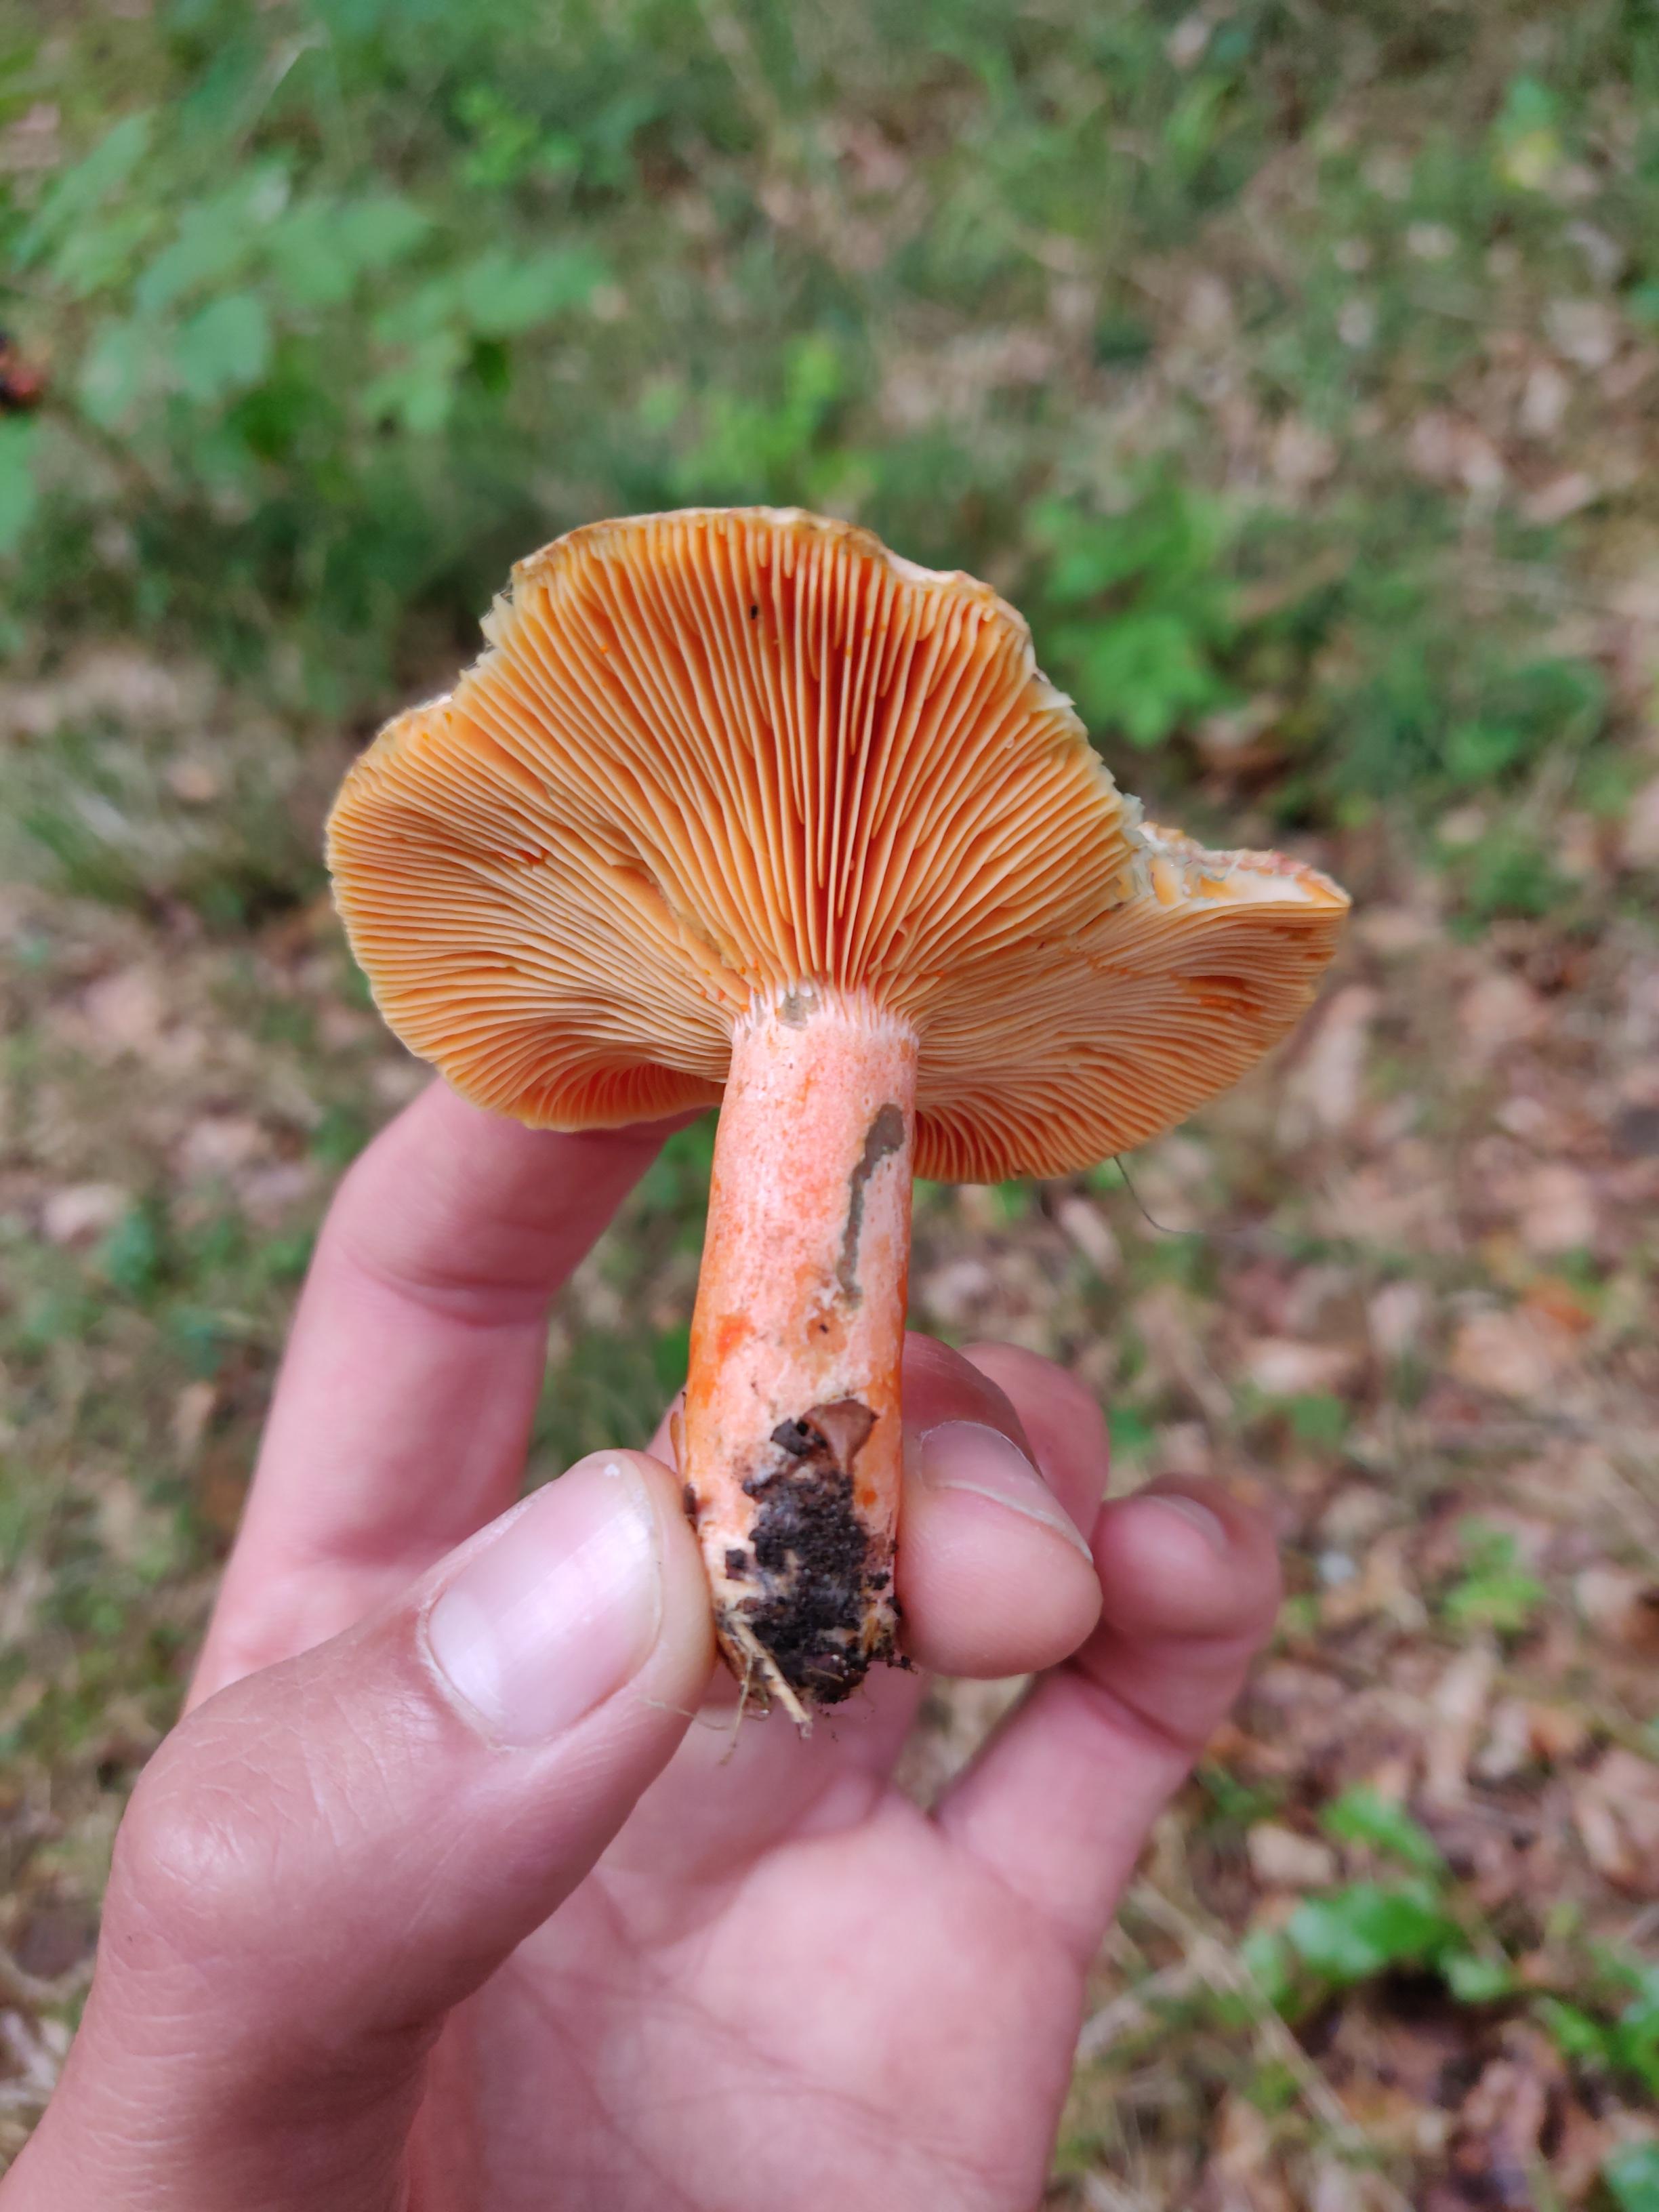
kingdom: Fungi
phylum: Basidiomycota
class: Agaricomycetes
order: Russulales
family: Russulaceae
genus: Lactarius
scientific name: Lactarius deterrimus
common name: gran-mælkehat
